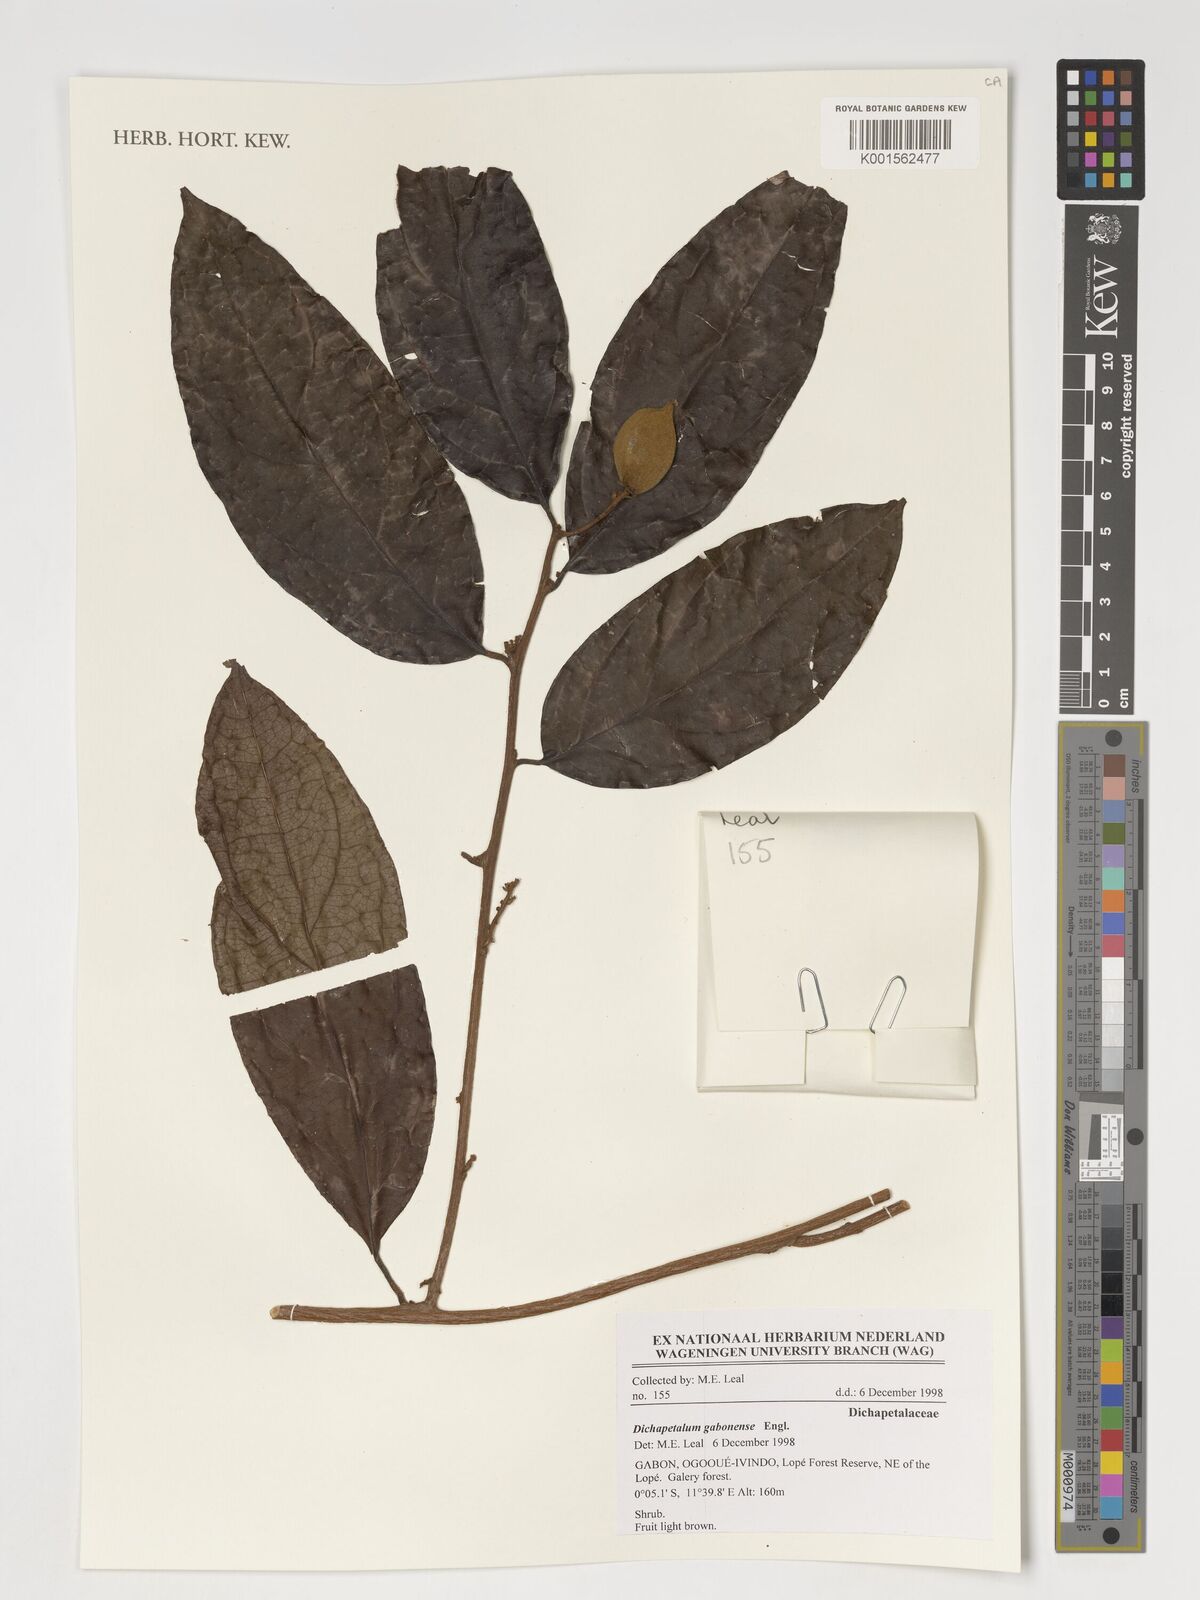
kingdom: Plantae
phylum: Tracheophyta
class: Magnoliopsida
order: Malpighiales
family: Dichapetalaceae
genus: Dichapetalum
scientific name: Dichapetalum gabonense
